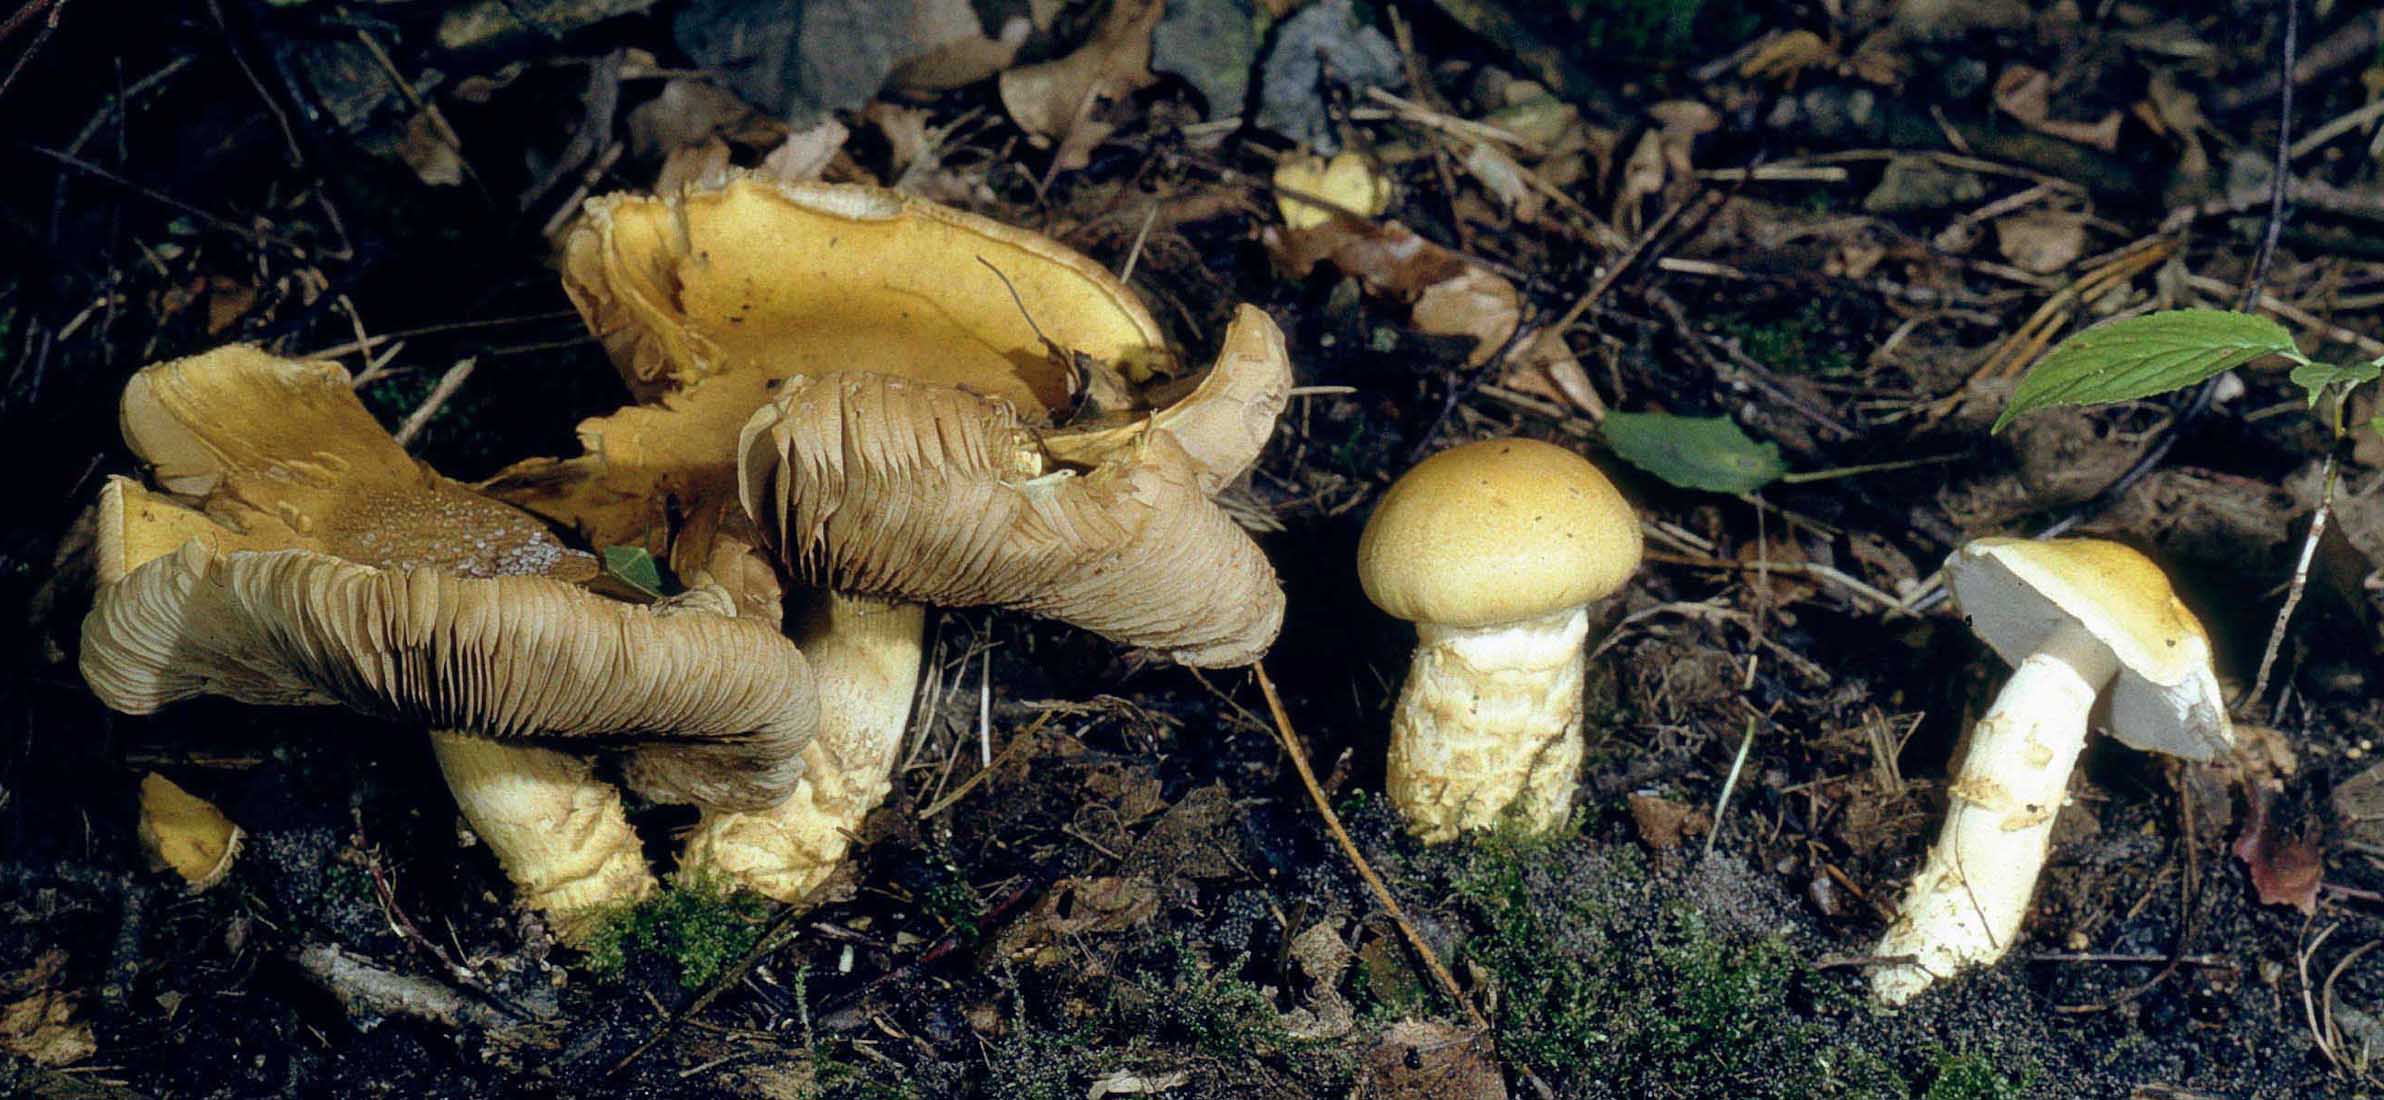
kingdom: Fungi
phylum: Basidiomycota
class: Agaricomycetes
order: Agaricales
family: Cortinariaceae
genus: Phlegmacium
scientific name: Phlegmacium triumphans
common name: gulbæltet slørhat
